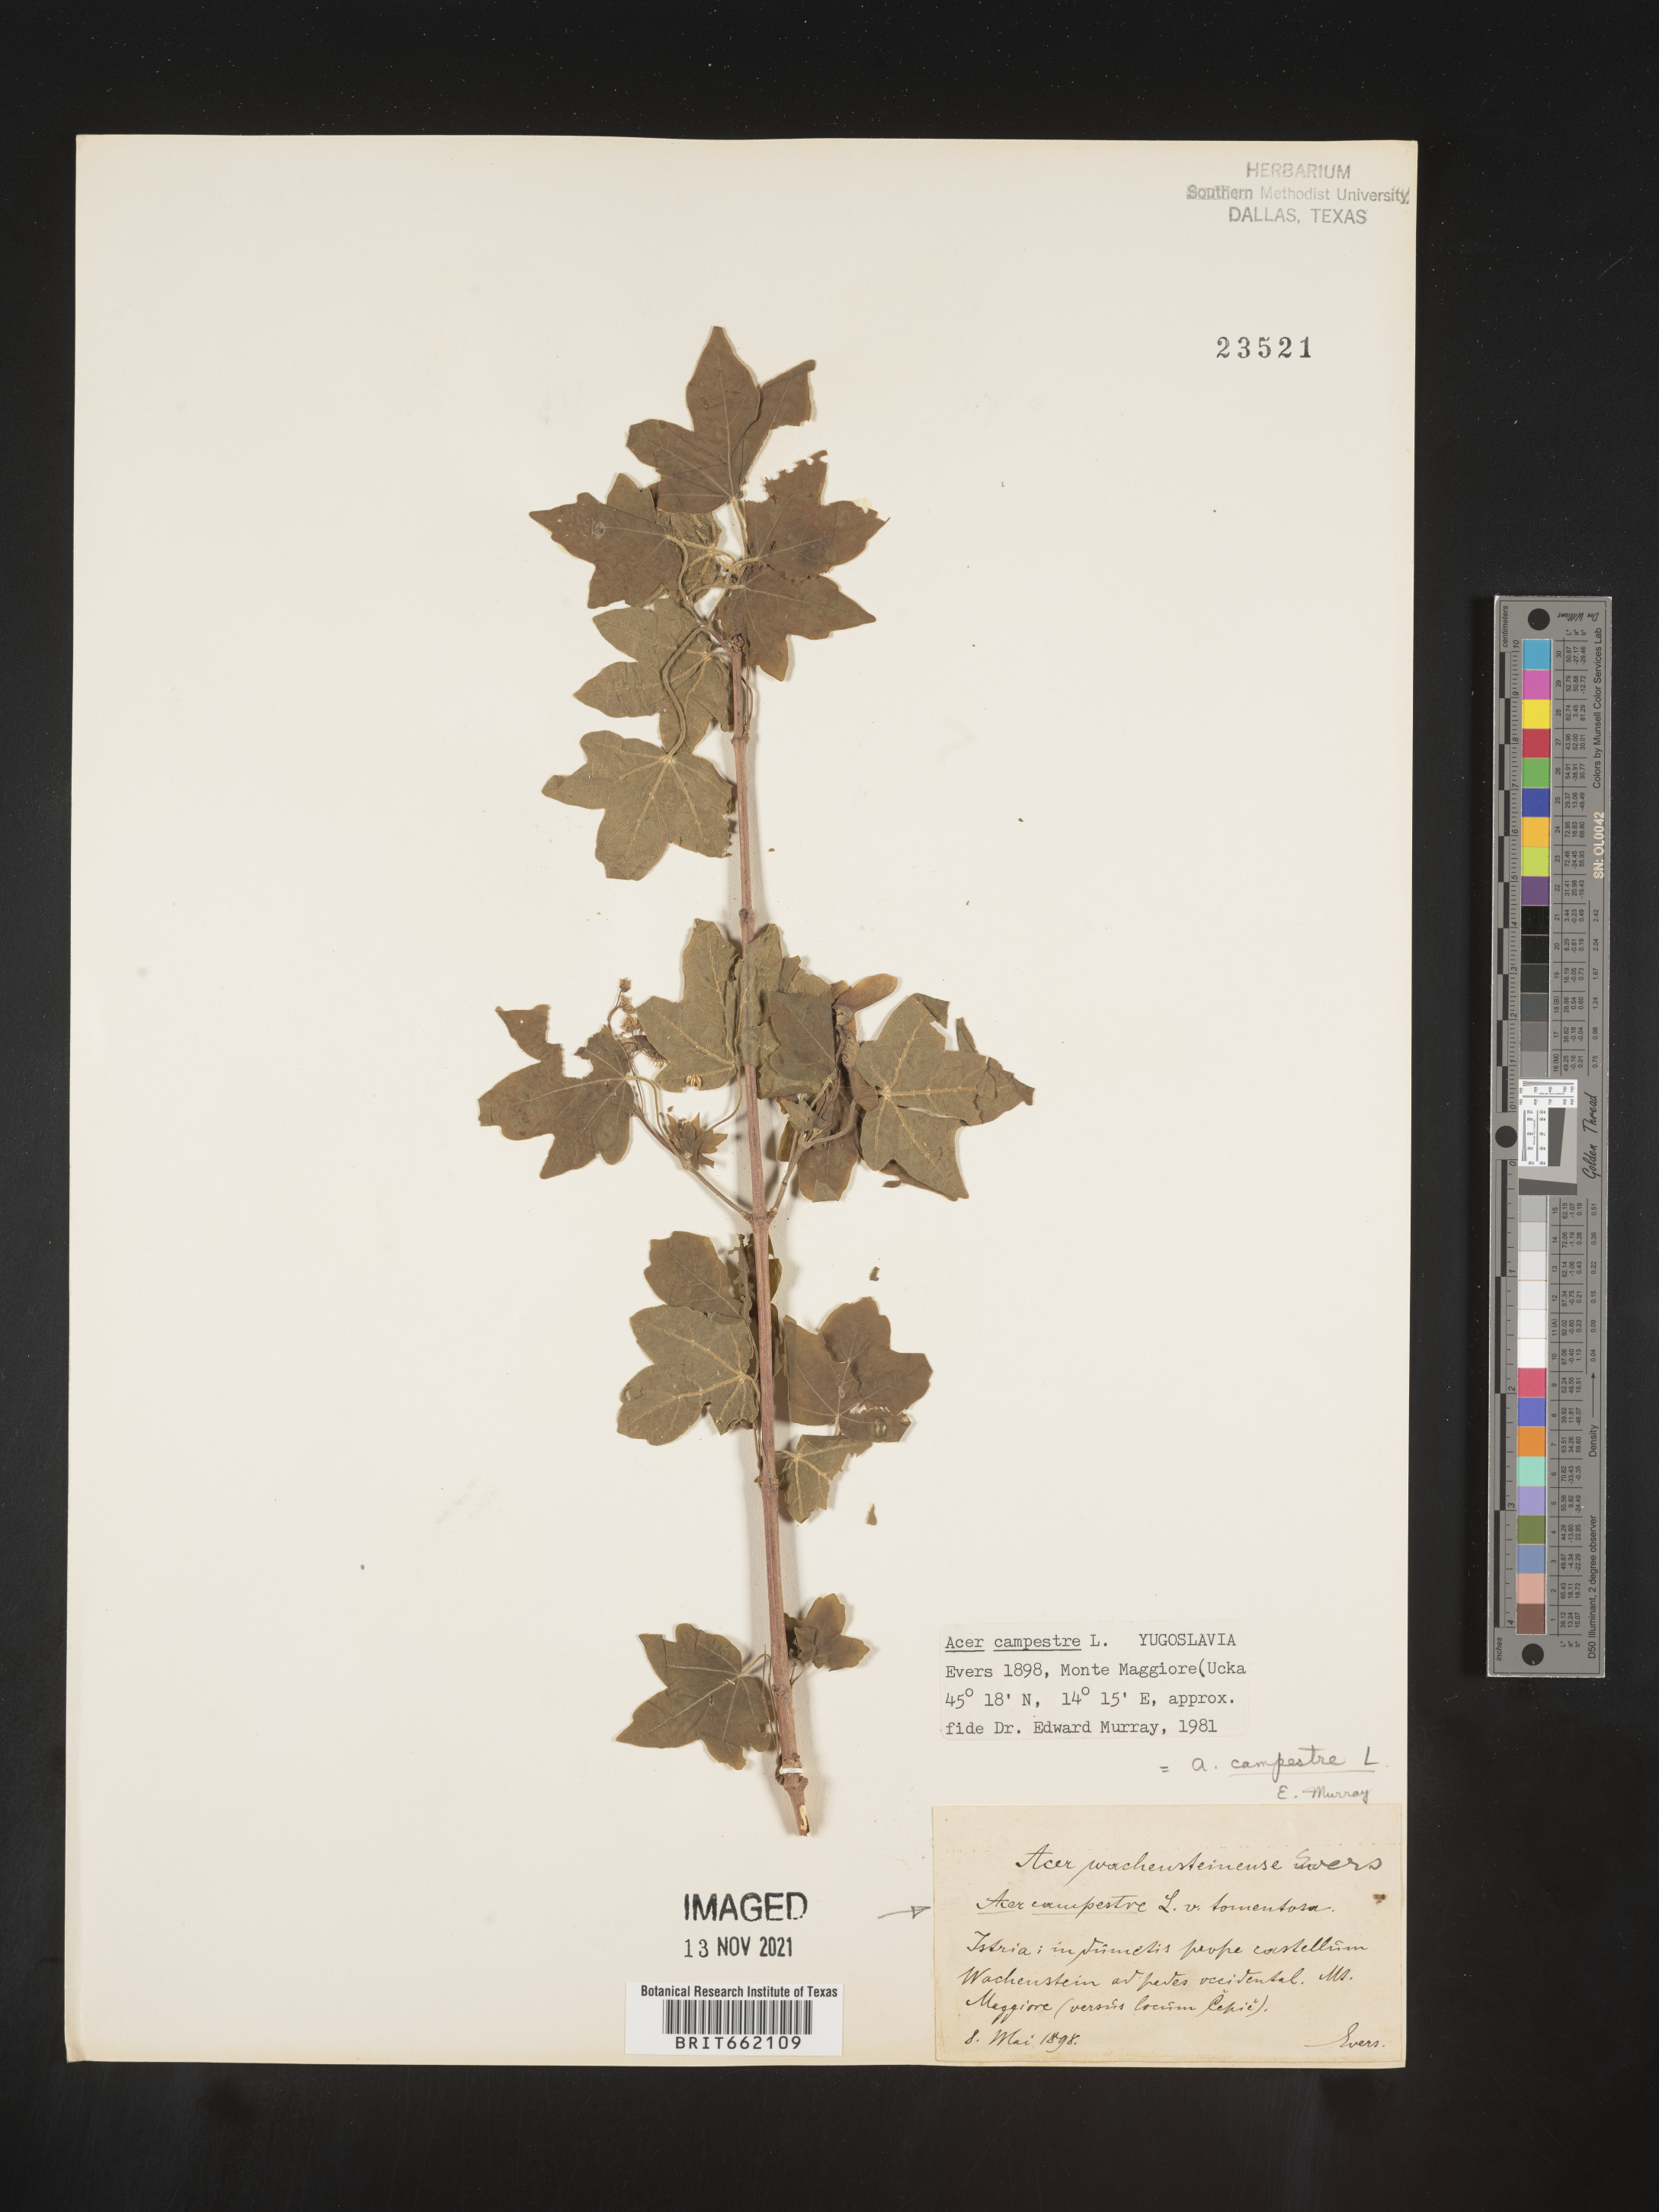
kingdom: Plantae
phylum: Tracheophyta
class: Magnoliopsida
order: Sapindales
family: Sapindaceae
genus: Acer
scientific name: Acer
